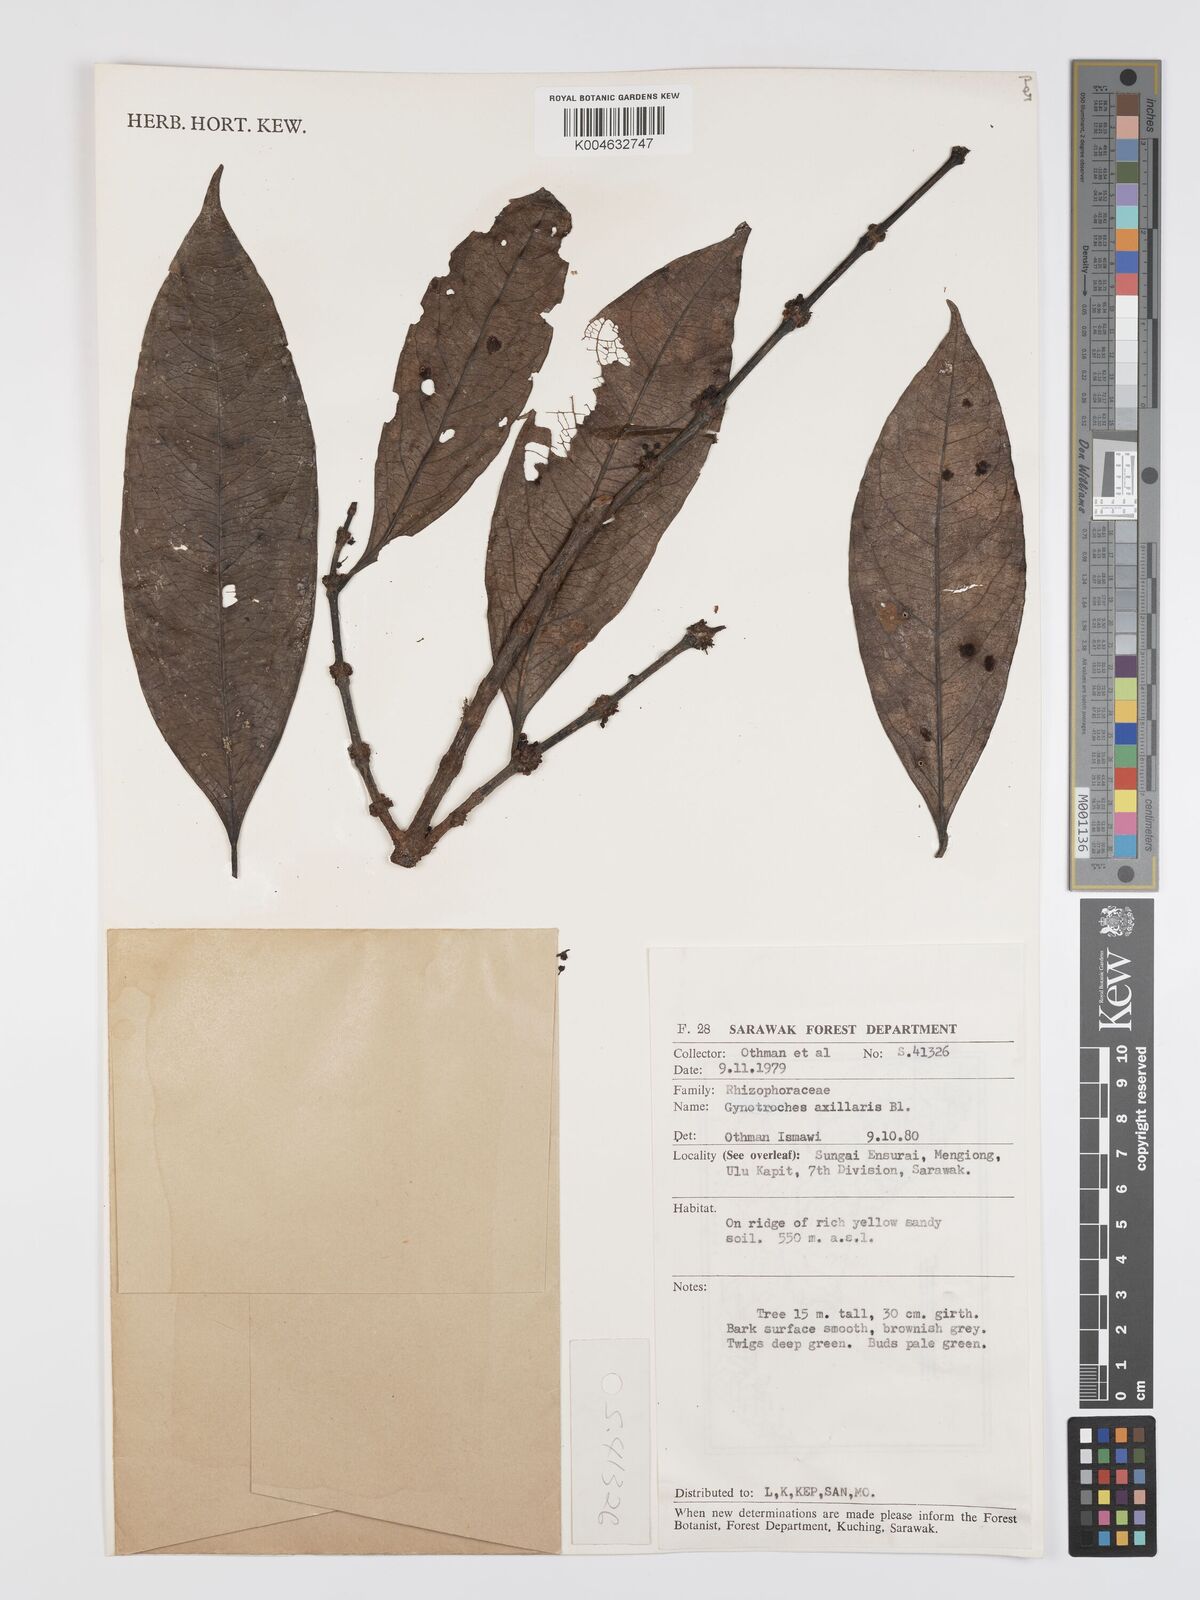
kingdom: Plantae
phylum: Tracheophyta
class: Magnoliopsida
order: Malpighiales
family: Rhizophoraceae
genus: Gynotroches
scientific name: Gynotroches axillaris
